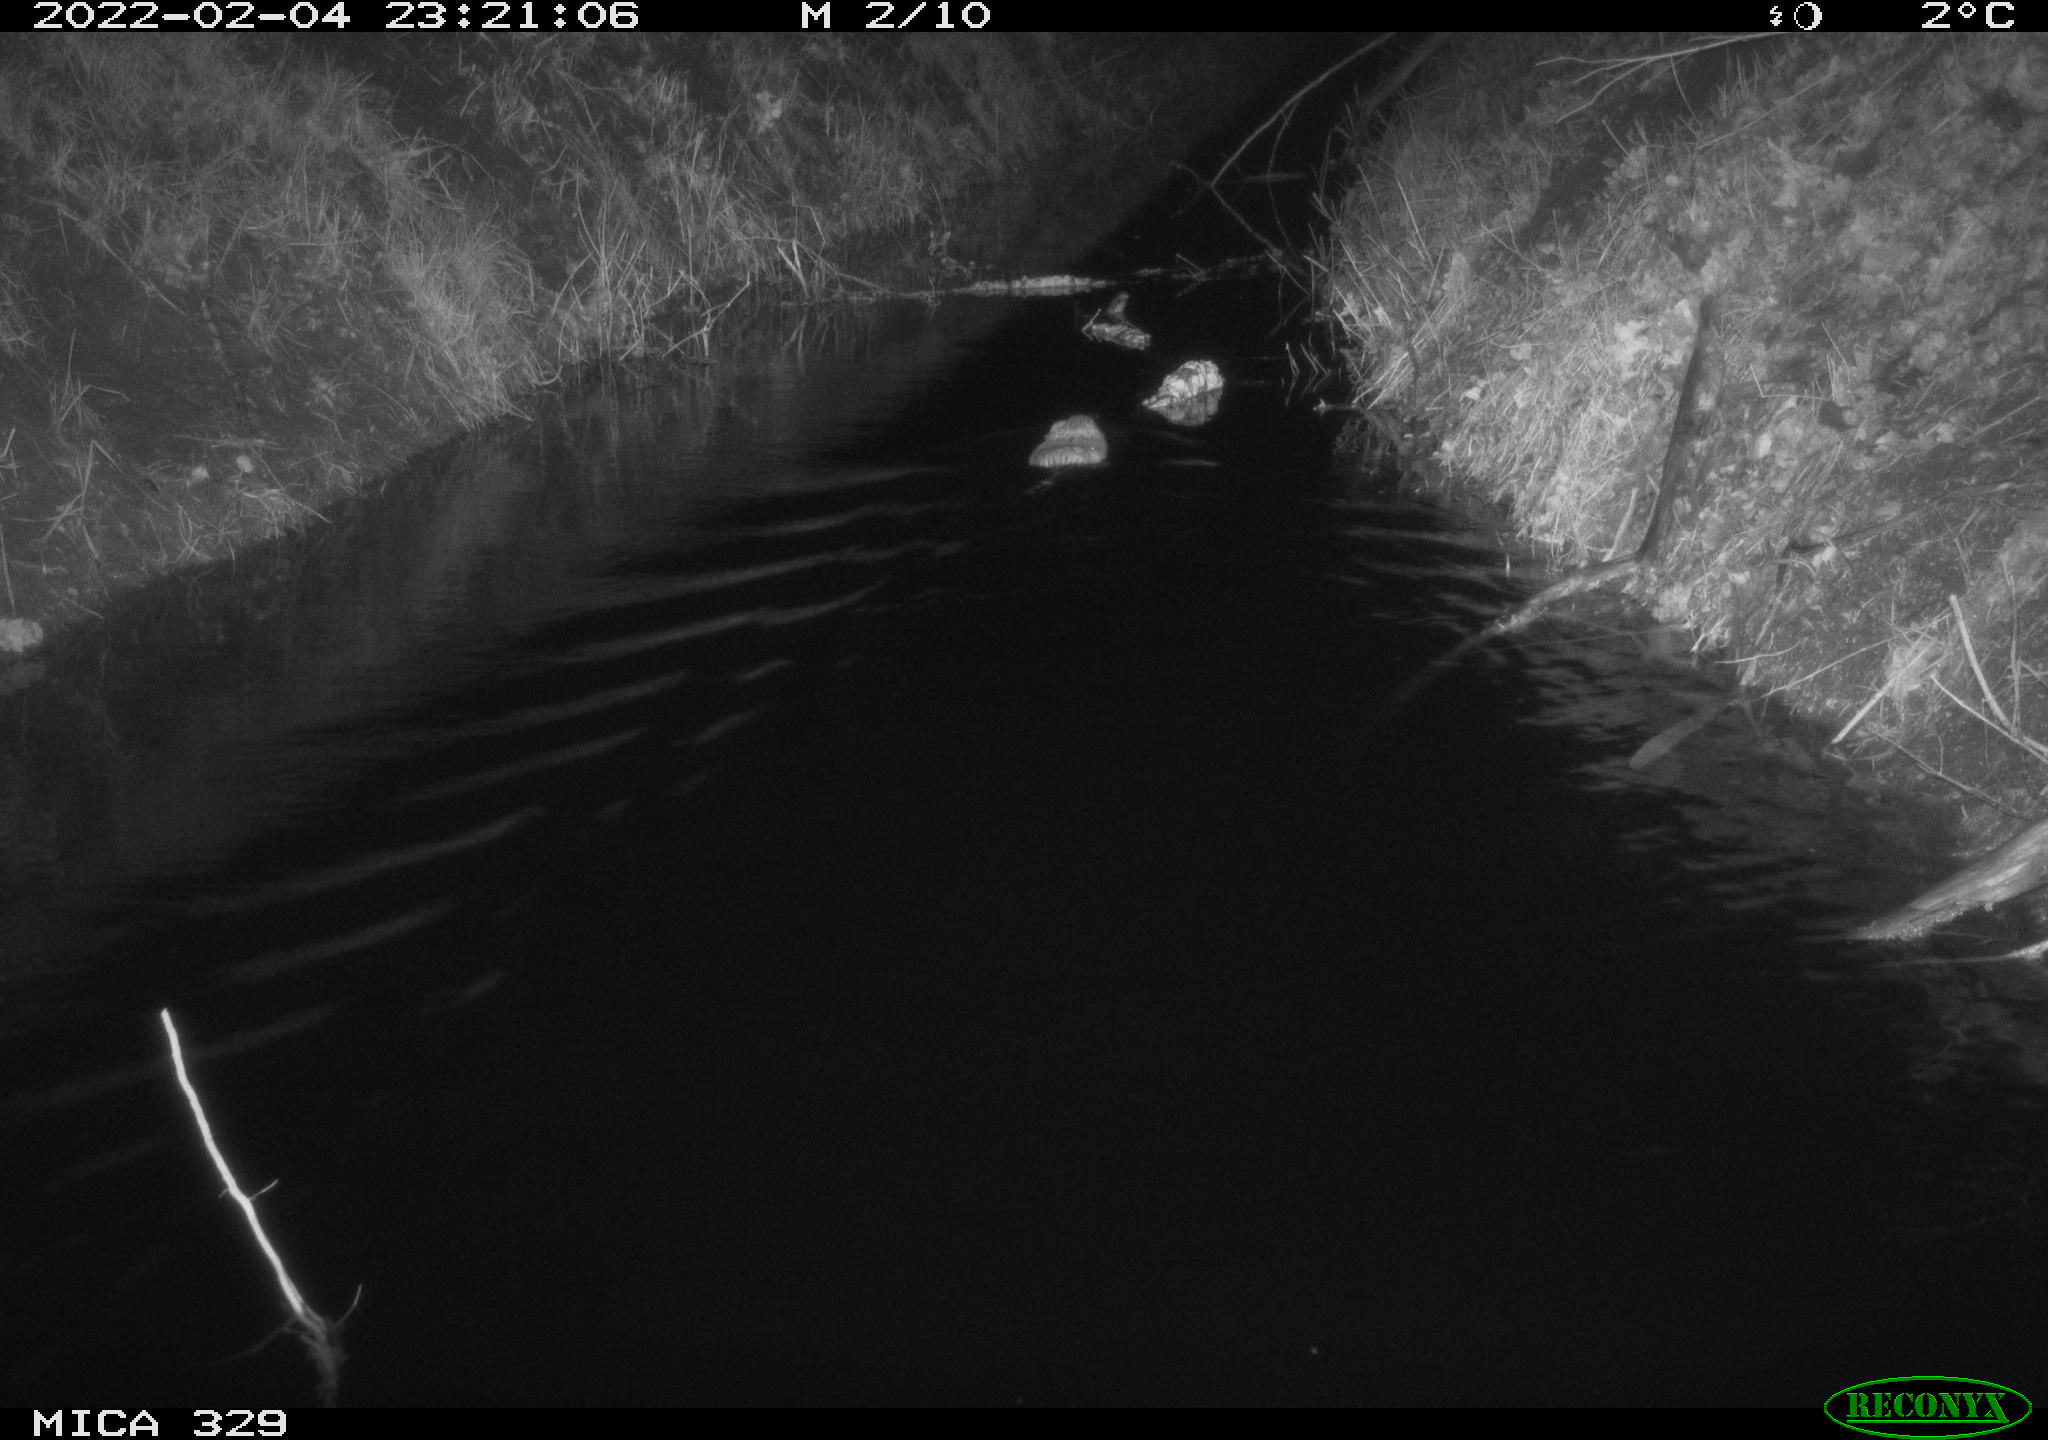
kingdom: Animalia
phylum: Chordata
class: Mammalia
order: Rodentia
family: Cricetidae
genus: Ondatra
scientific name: Ondatra zibethicus
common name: Muskrat
